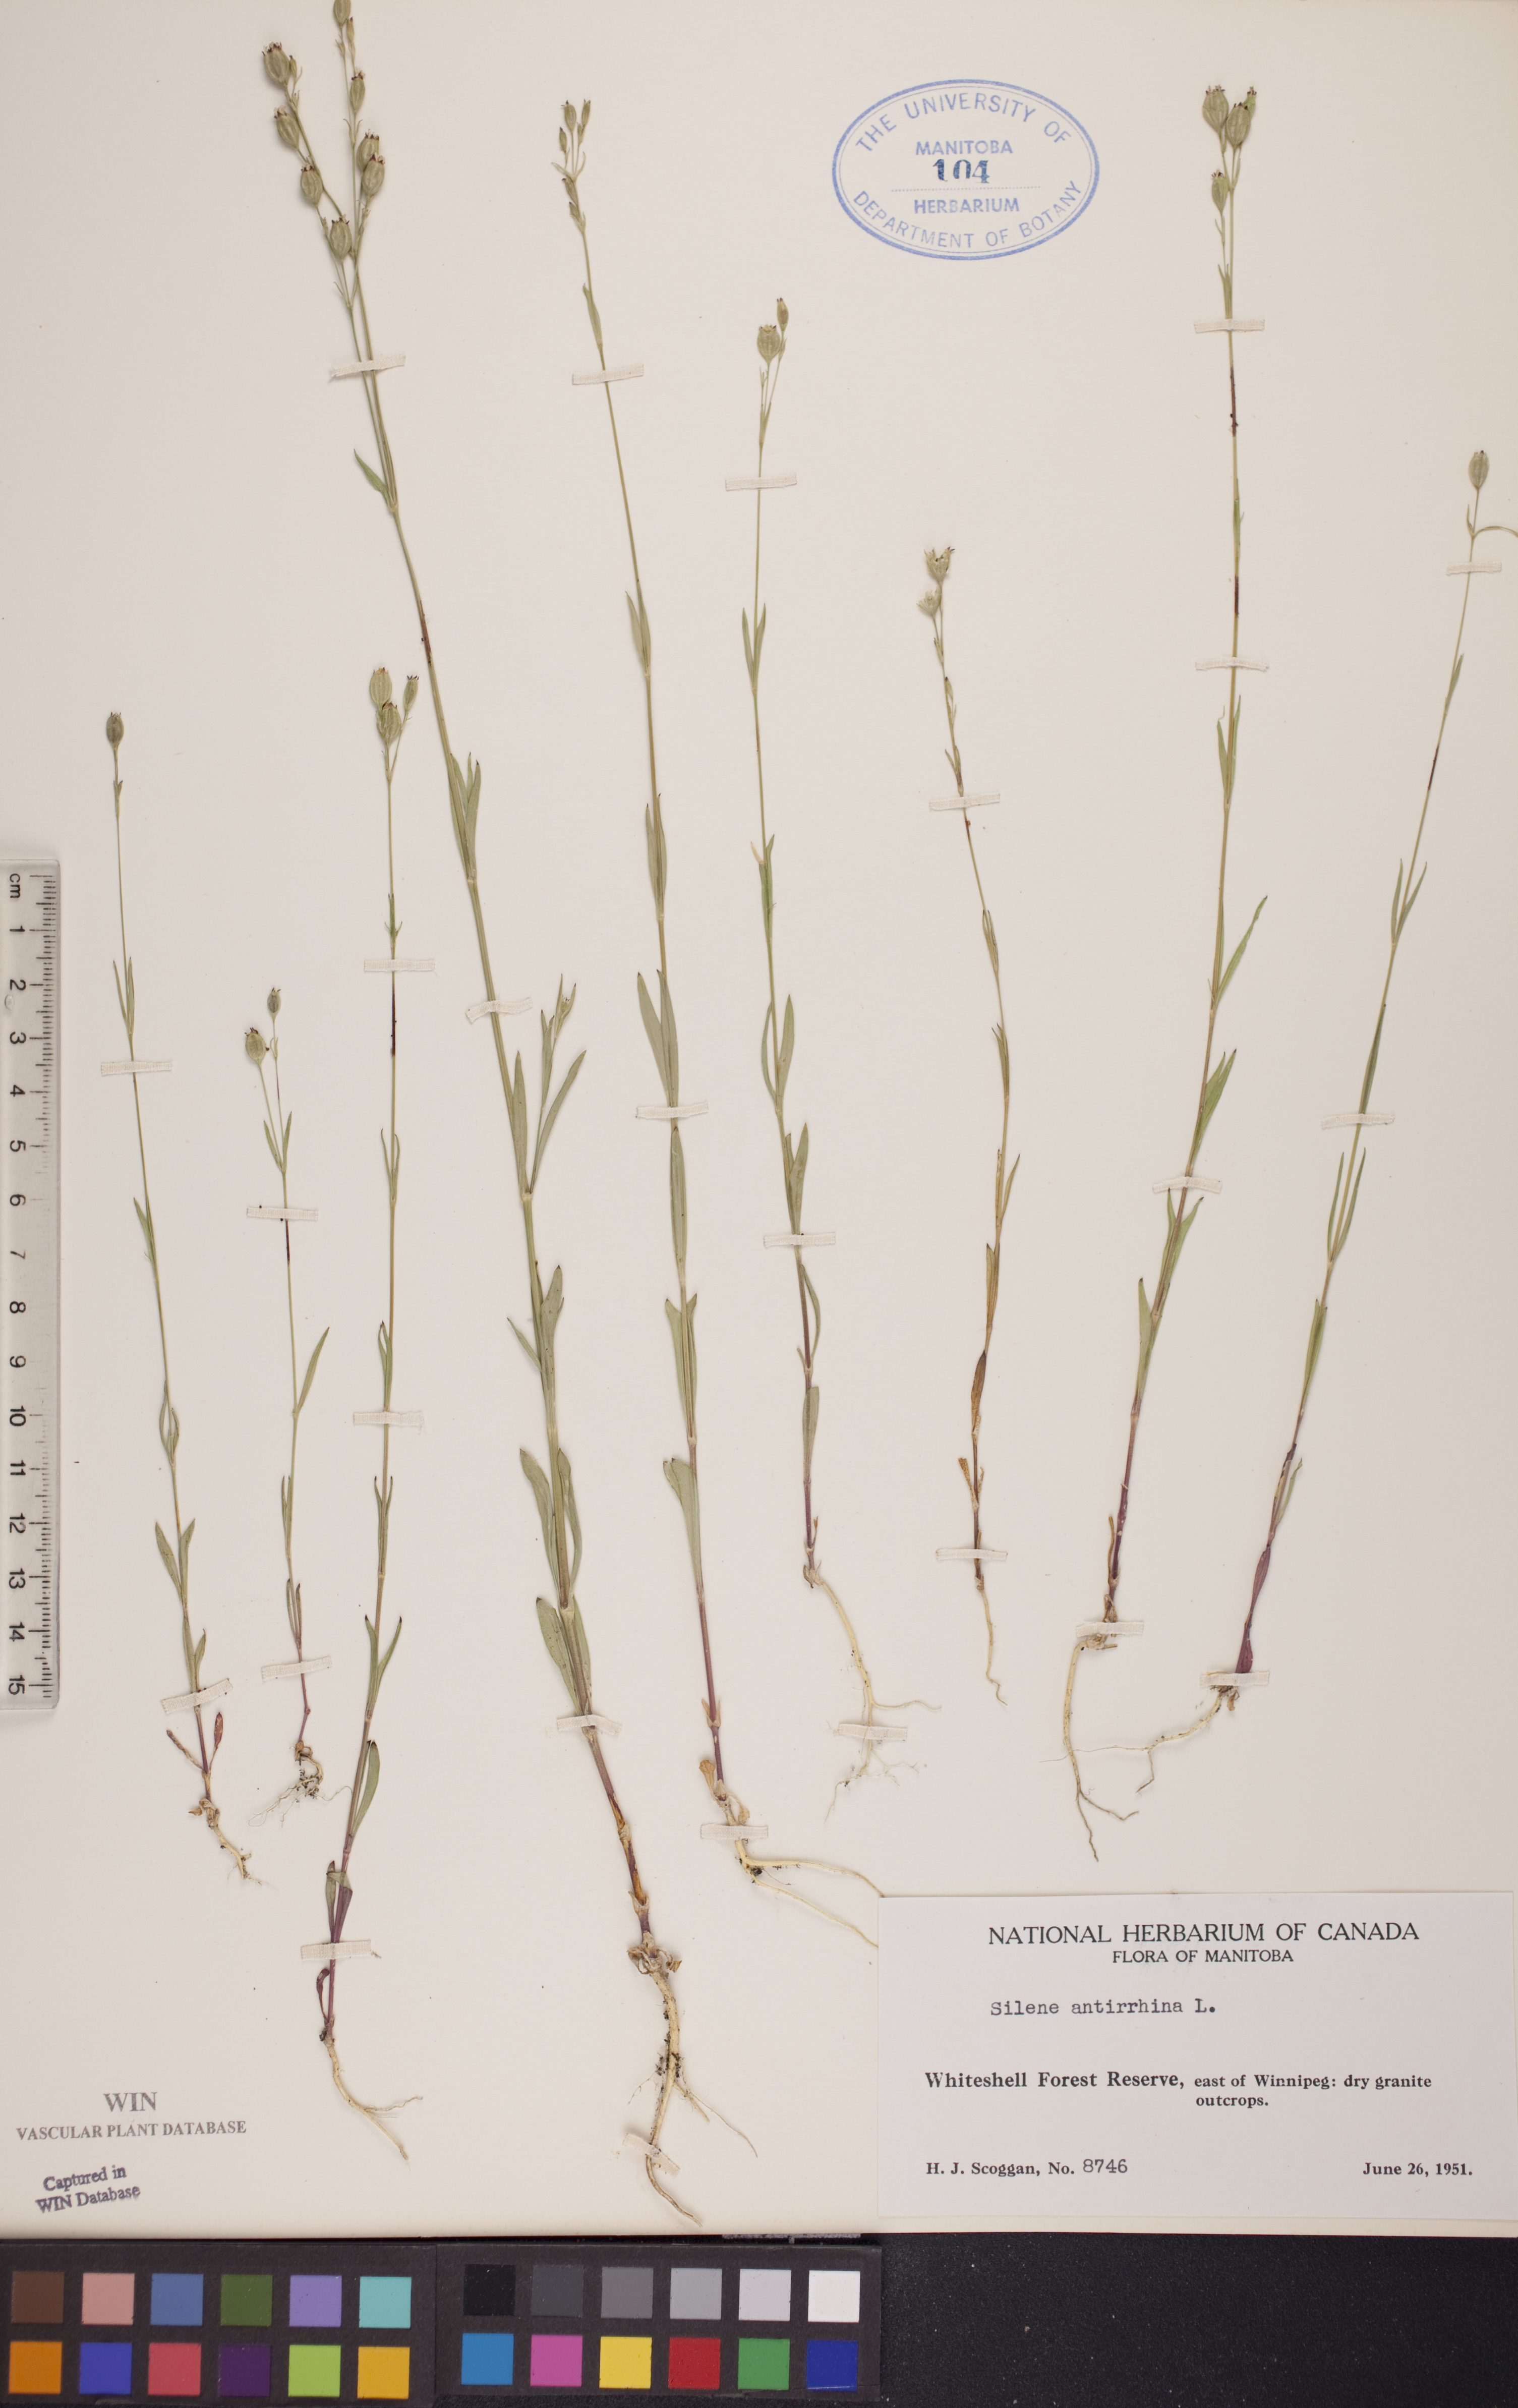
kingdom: Plantae
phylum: Tracheophyta
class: Magnoliopsida
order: Caryophyllales
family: Caryophyllaceae
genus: Silene
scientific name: Silene antirrhina
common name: Sleepy catchfly
